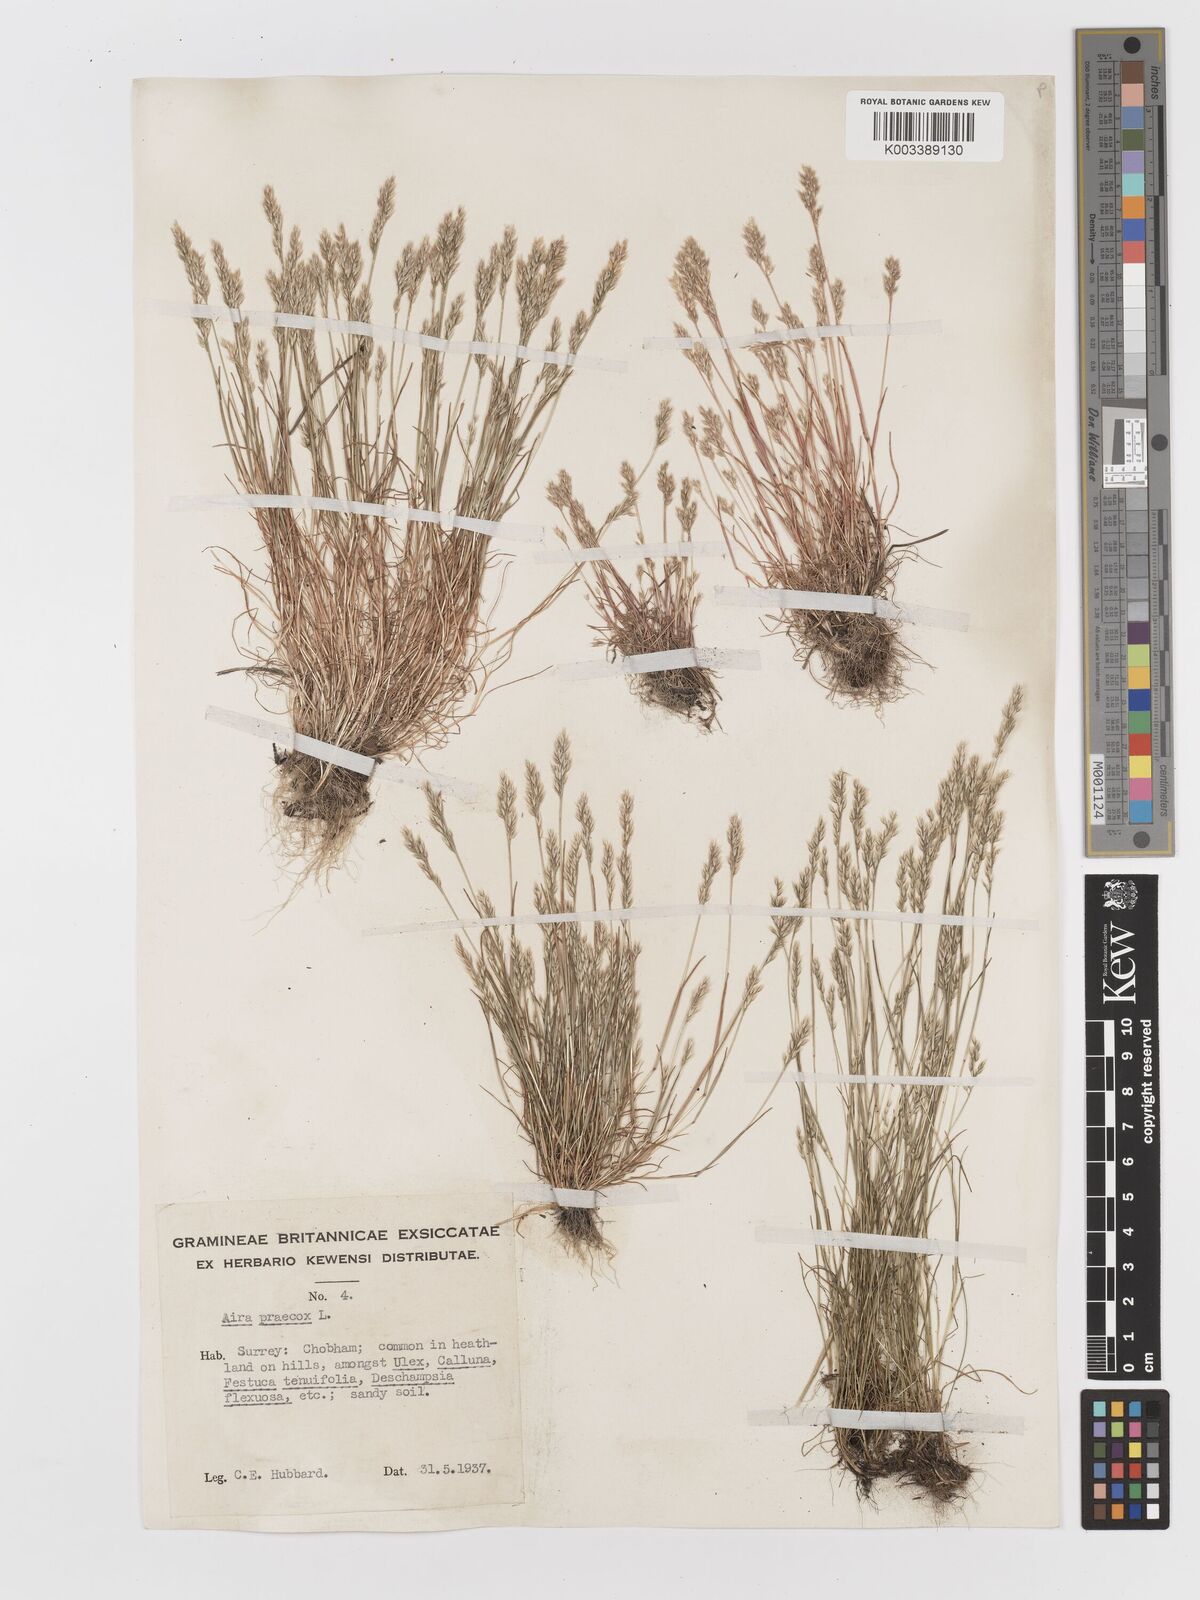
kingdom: Plantae
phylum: Tracheophyta
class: Liliopsida
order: Poales
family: Poaceae
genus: Aira
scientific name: Aira praecox
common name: Early hair-grass
